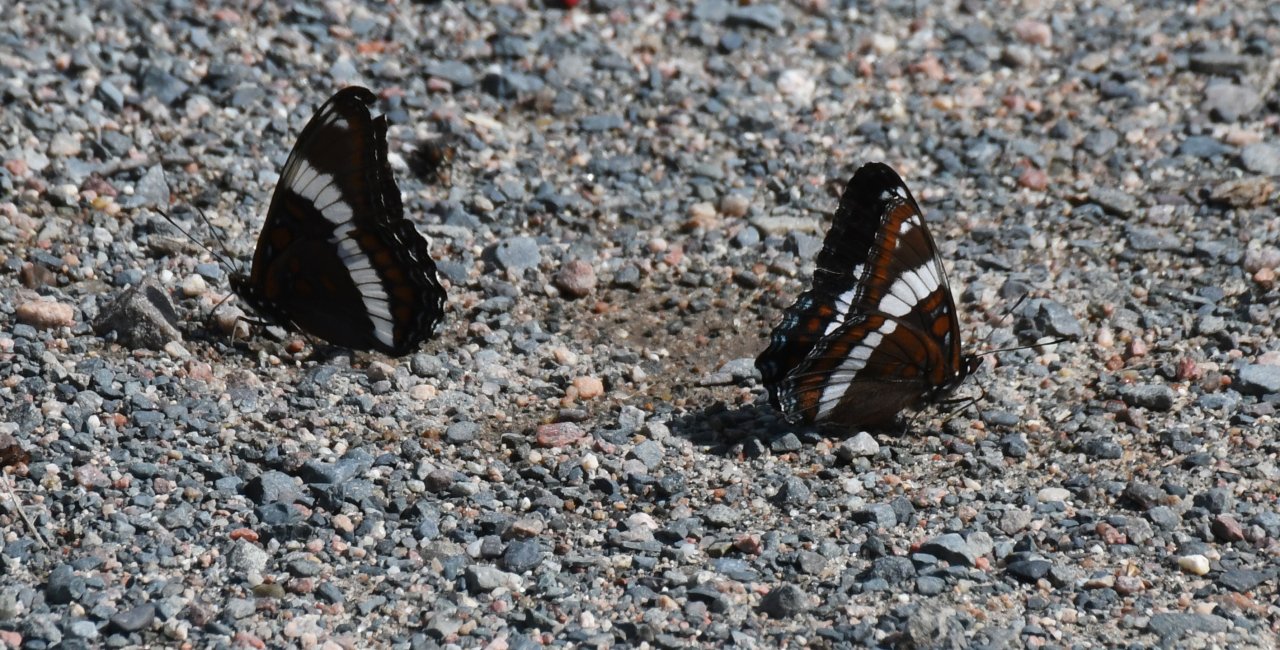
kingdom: Animalia
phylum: Arthropoda
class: Insecta
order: Lepidoptera
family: Nymphalidae
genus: Limenitis
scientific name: Limenitis arthemis
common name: Red-spotted Admiral
